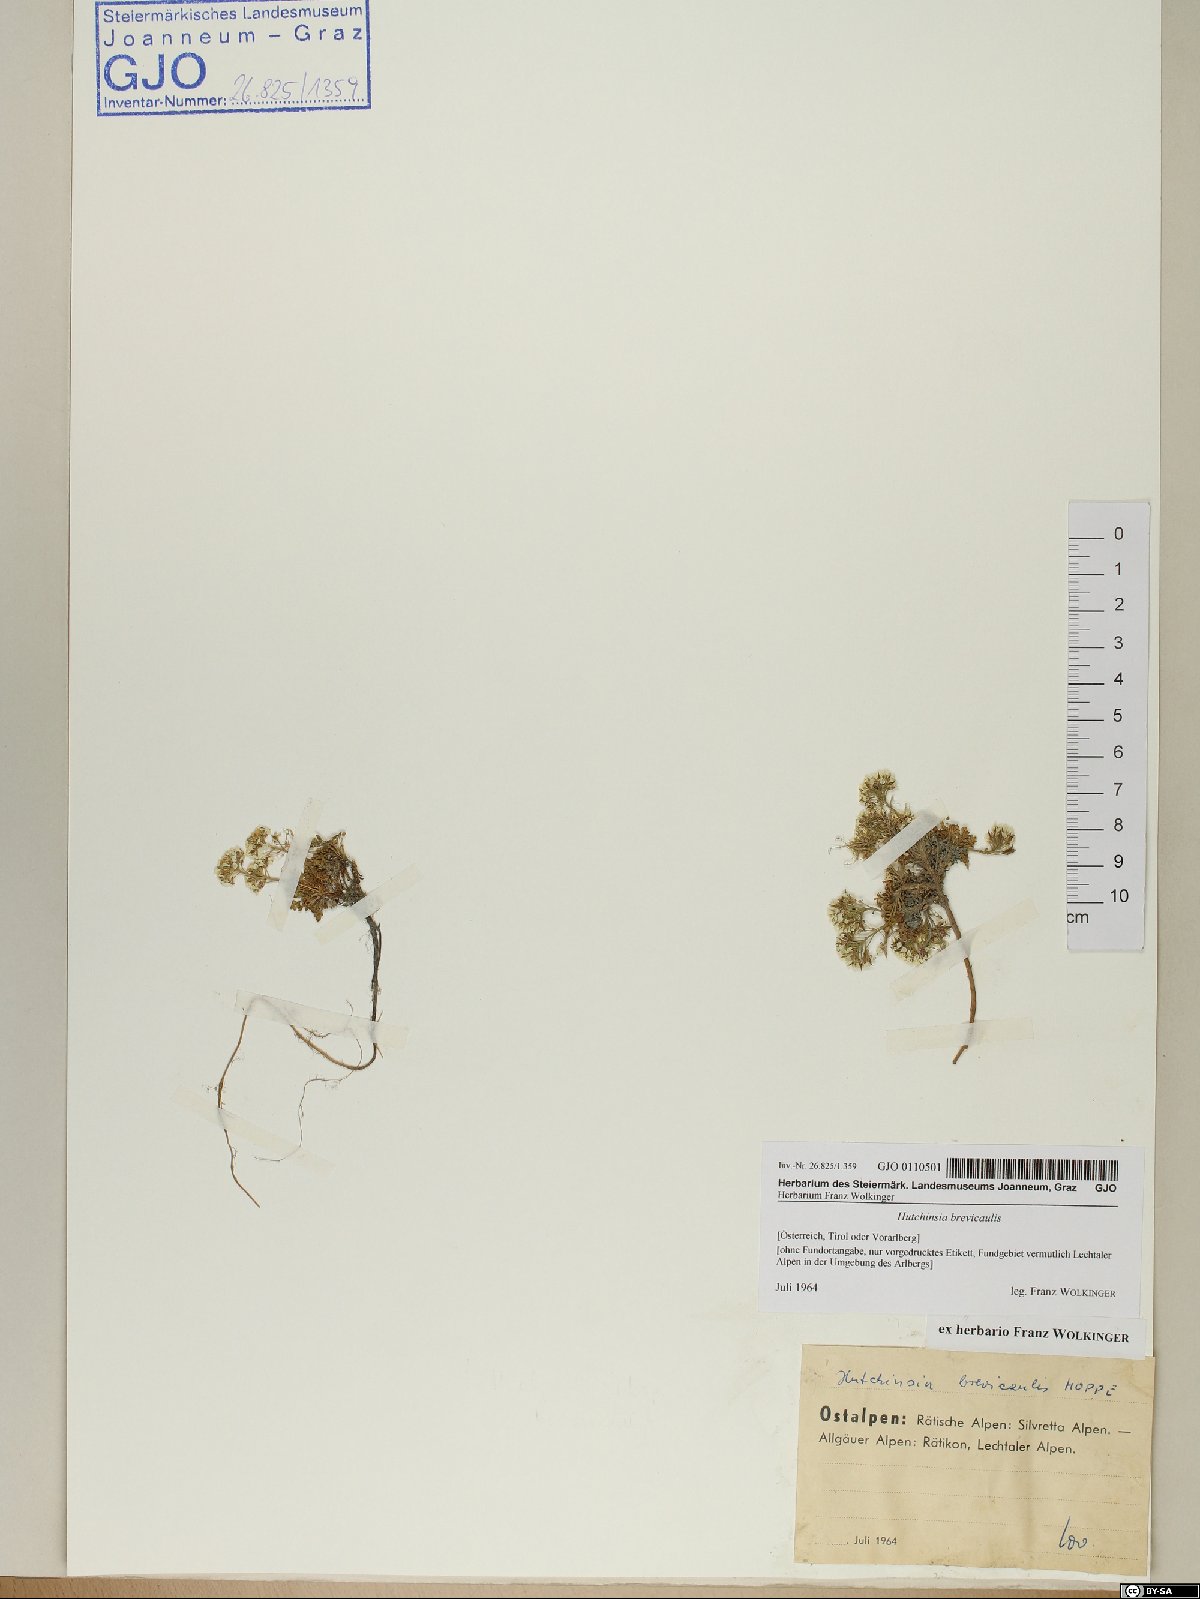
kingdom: Plantae
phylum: Tracheophyta
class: Magnoliopsida
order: Brassicales
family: Brassicaceae
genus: Hornungia
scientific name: Hornungia alpina
